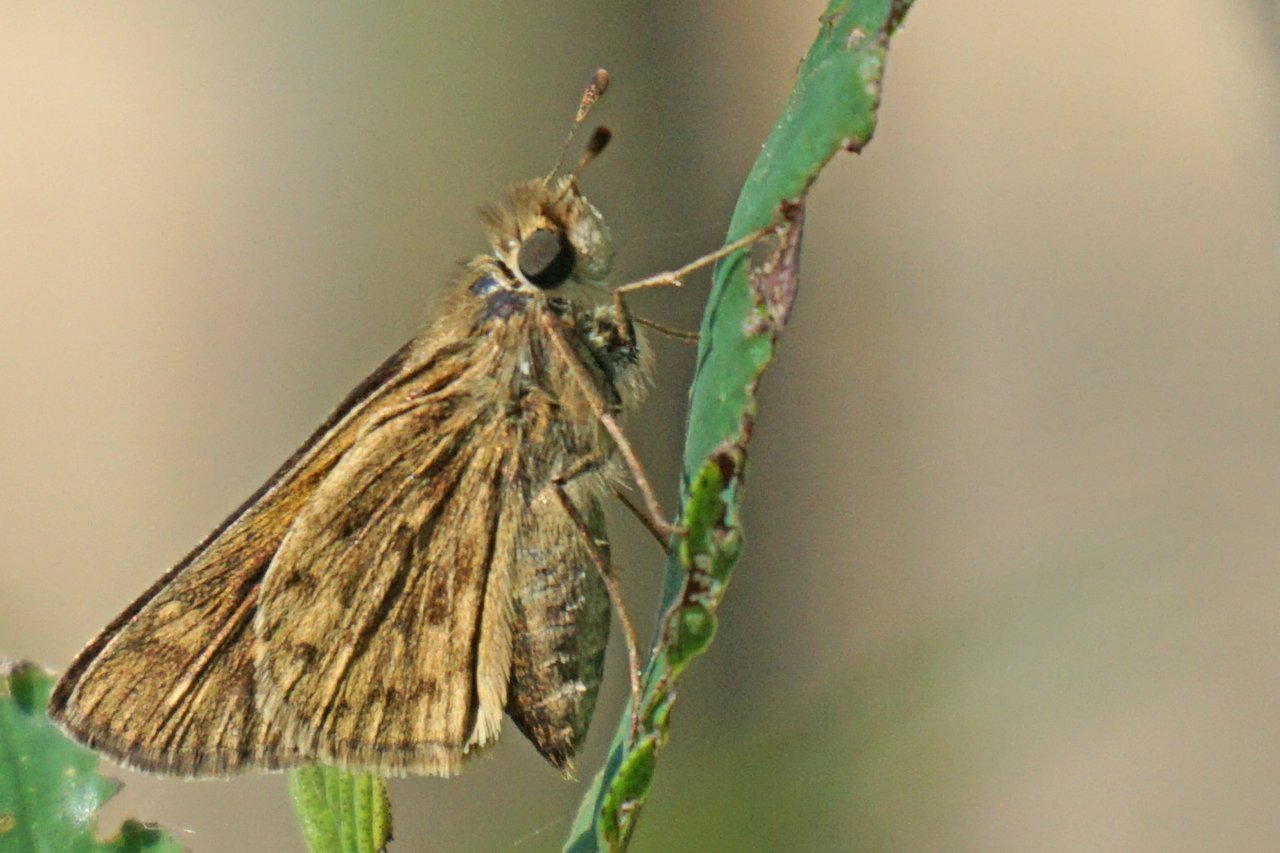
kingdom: Animalia
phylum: Arthropoda
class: Insecta
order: Lepidoptera
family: Hesperiidae
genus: Hylephila
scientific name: Hylephila phyleus
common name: Fiery Skipper
